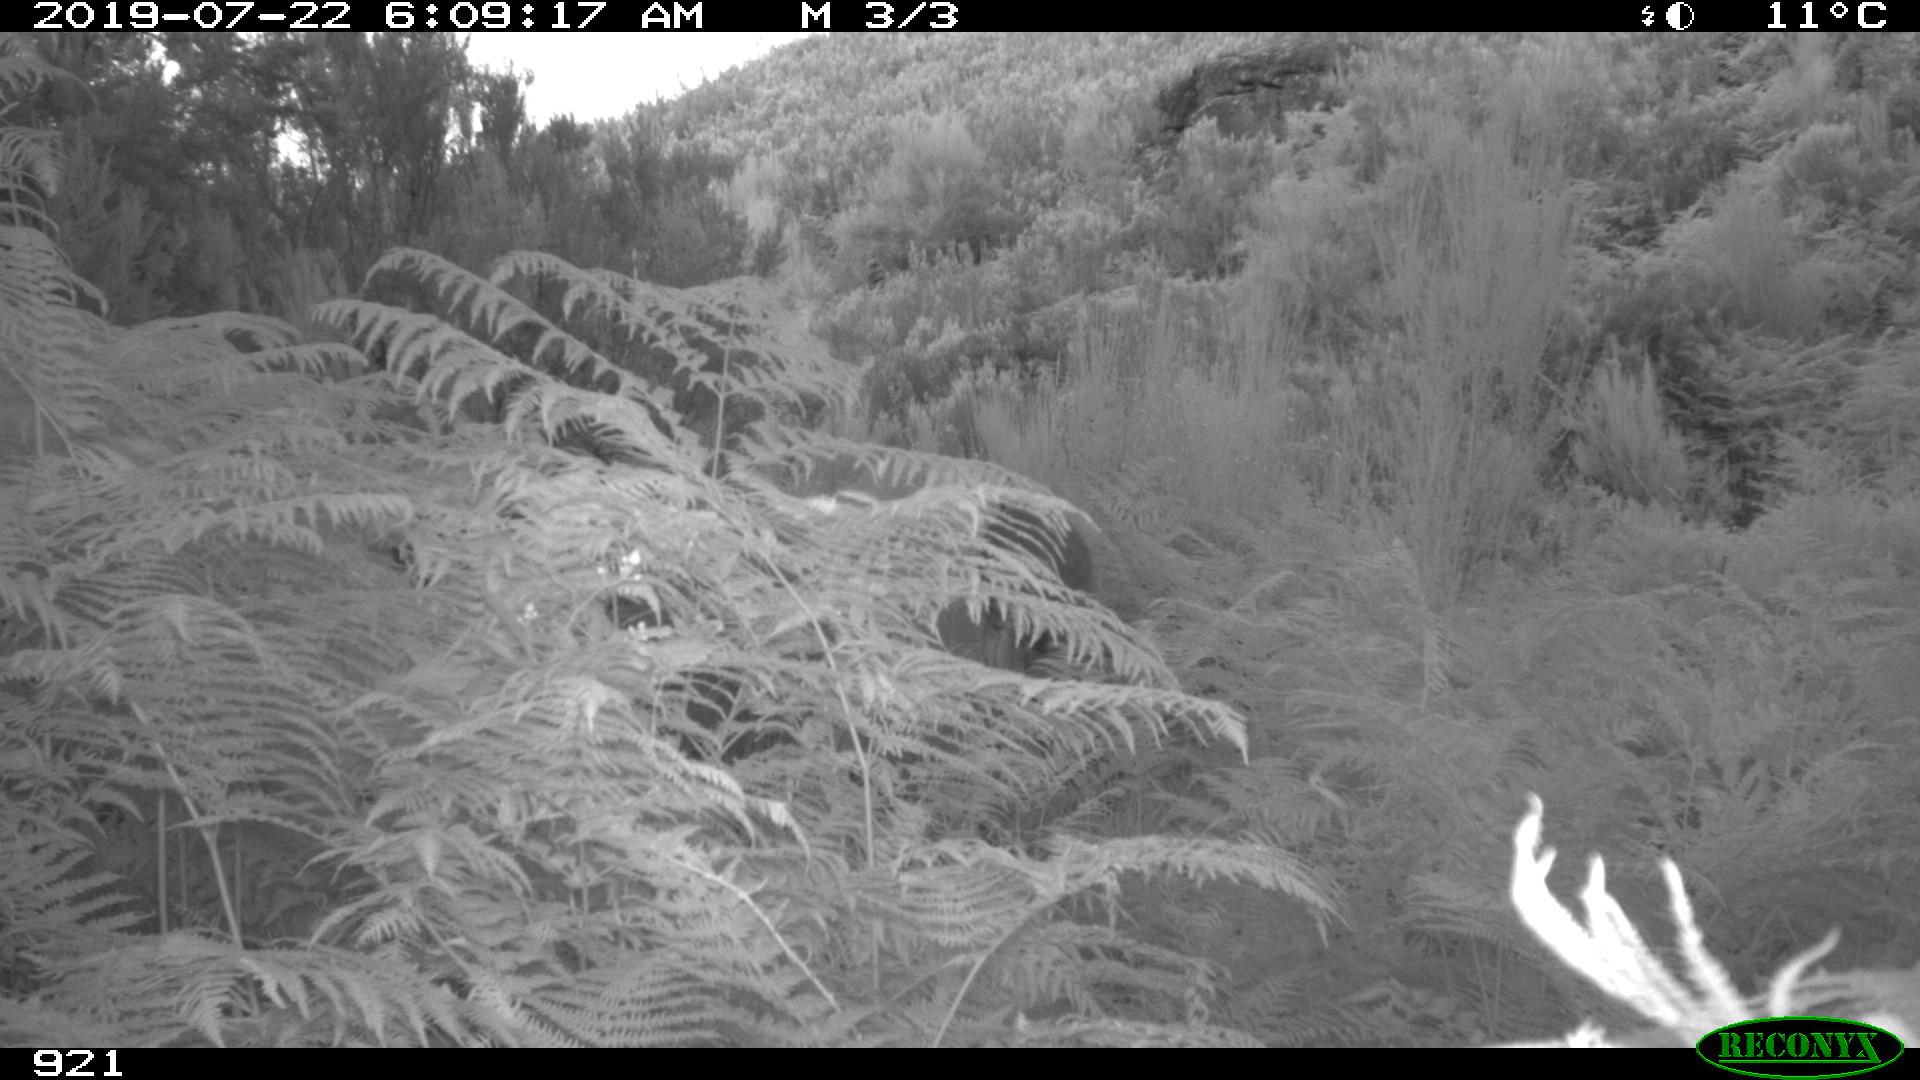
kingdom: Animalia
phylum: Chordata
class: Mammalia
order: Artiodactyla
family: Cervidae
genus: Capreolus
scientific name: Capreolus capreolus
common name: Western roe deer
